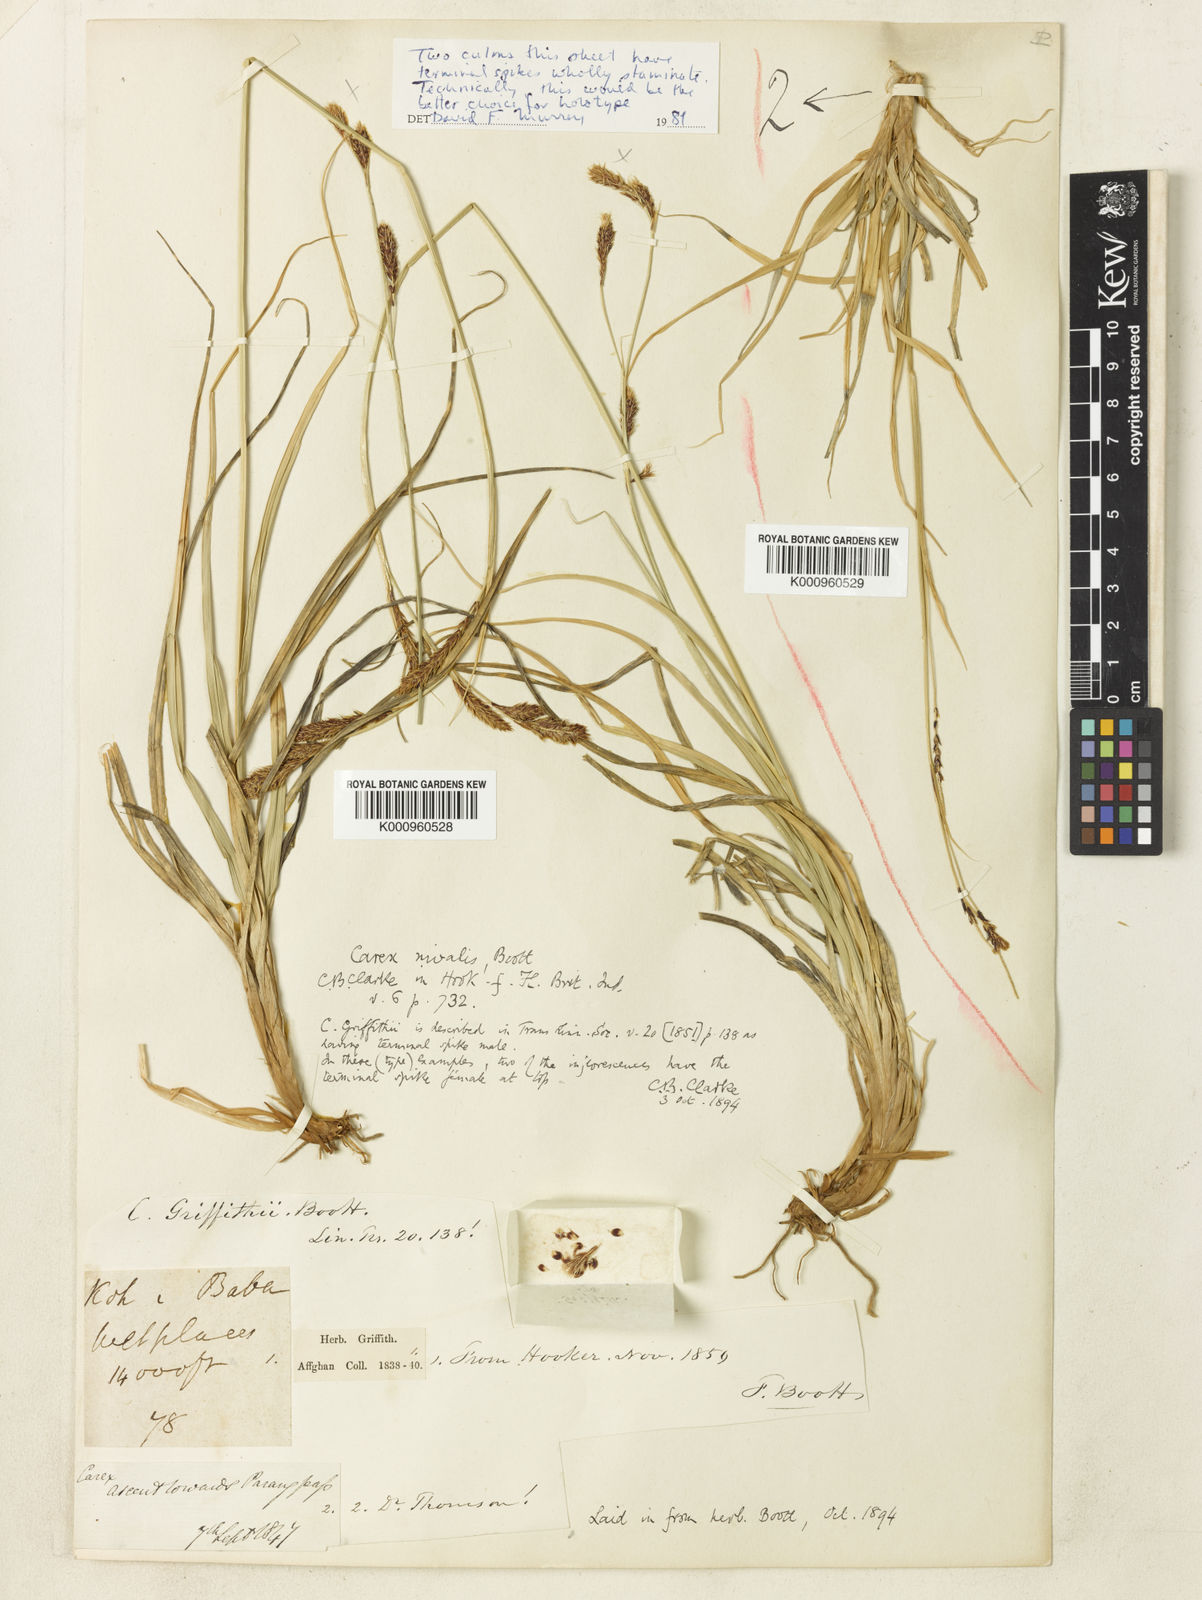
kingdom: Plantae
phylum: Tracheophyta
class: Liliopsida
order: Poales
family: Cyperaceae
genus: Carex
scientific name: Carex nivalis
